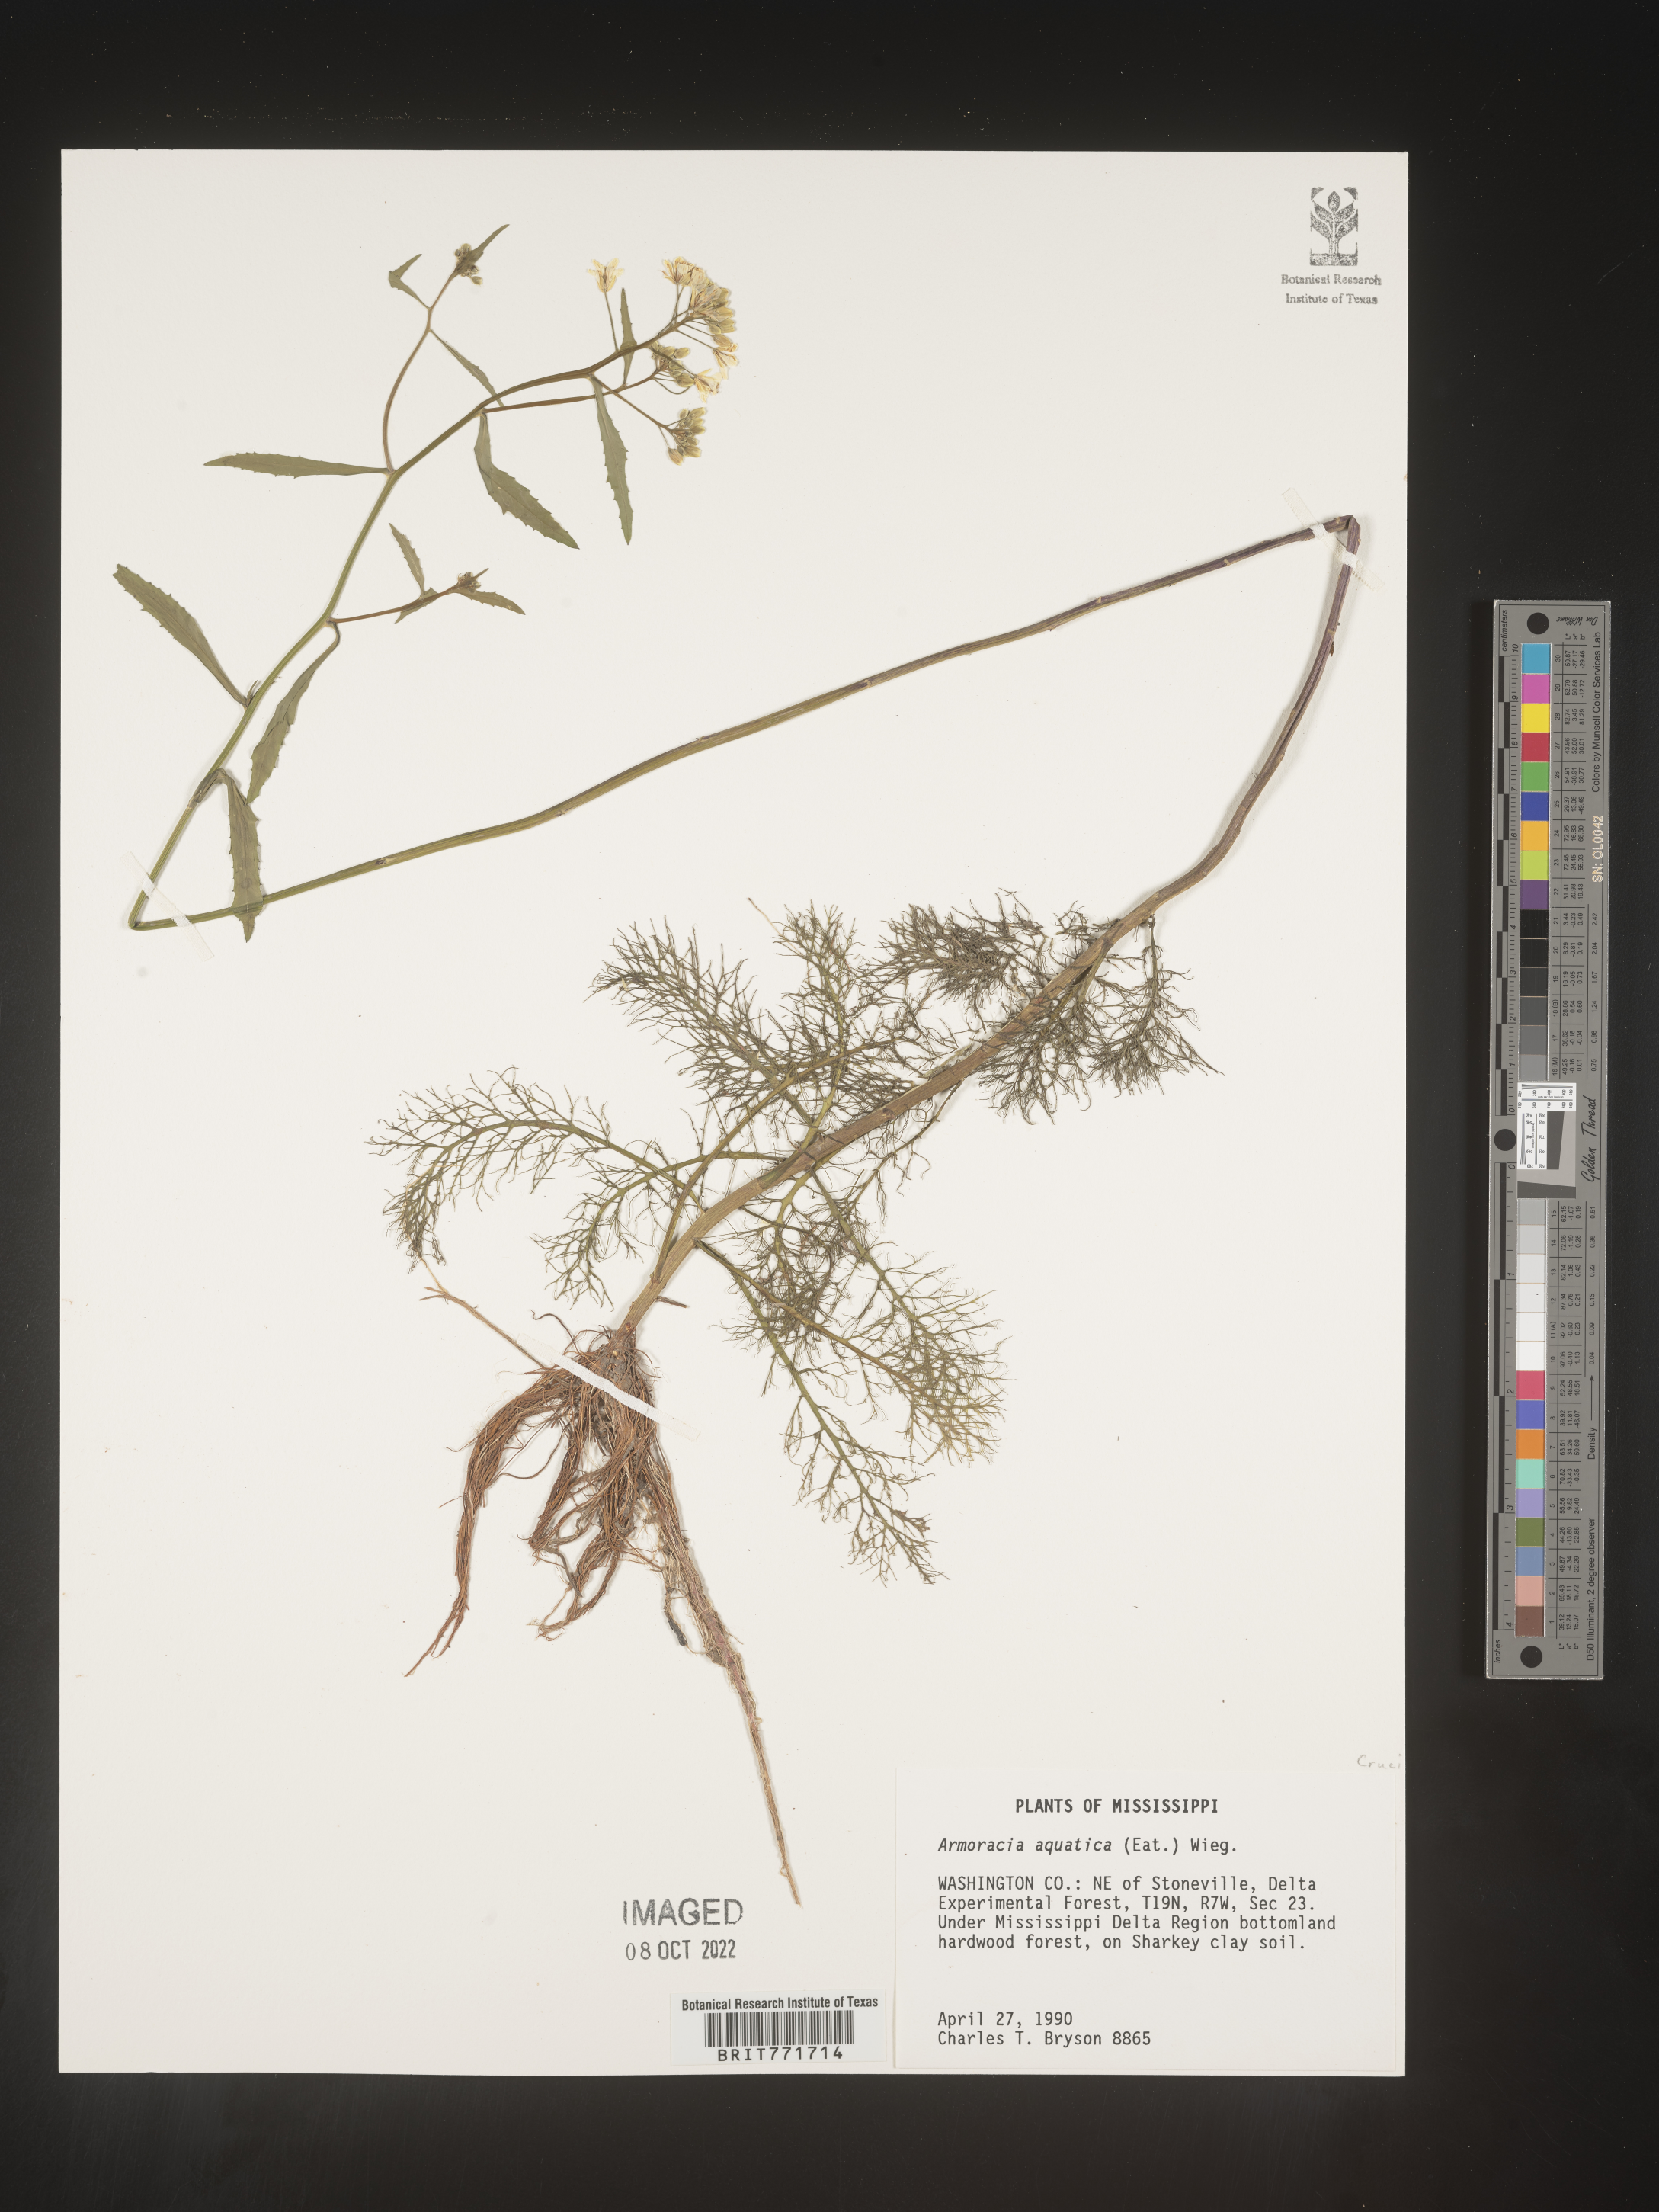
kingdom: Plantae
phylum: Tracheophyta
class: Magnoliopsida
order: Brassicales
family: Brassicaceae
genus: Armoracia
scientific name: Armoracia
